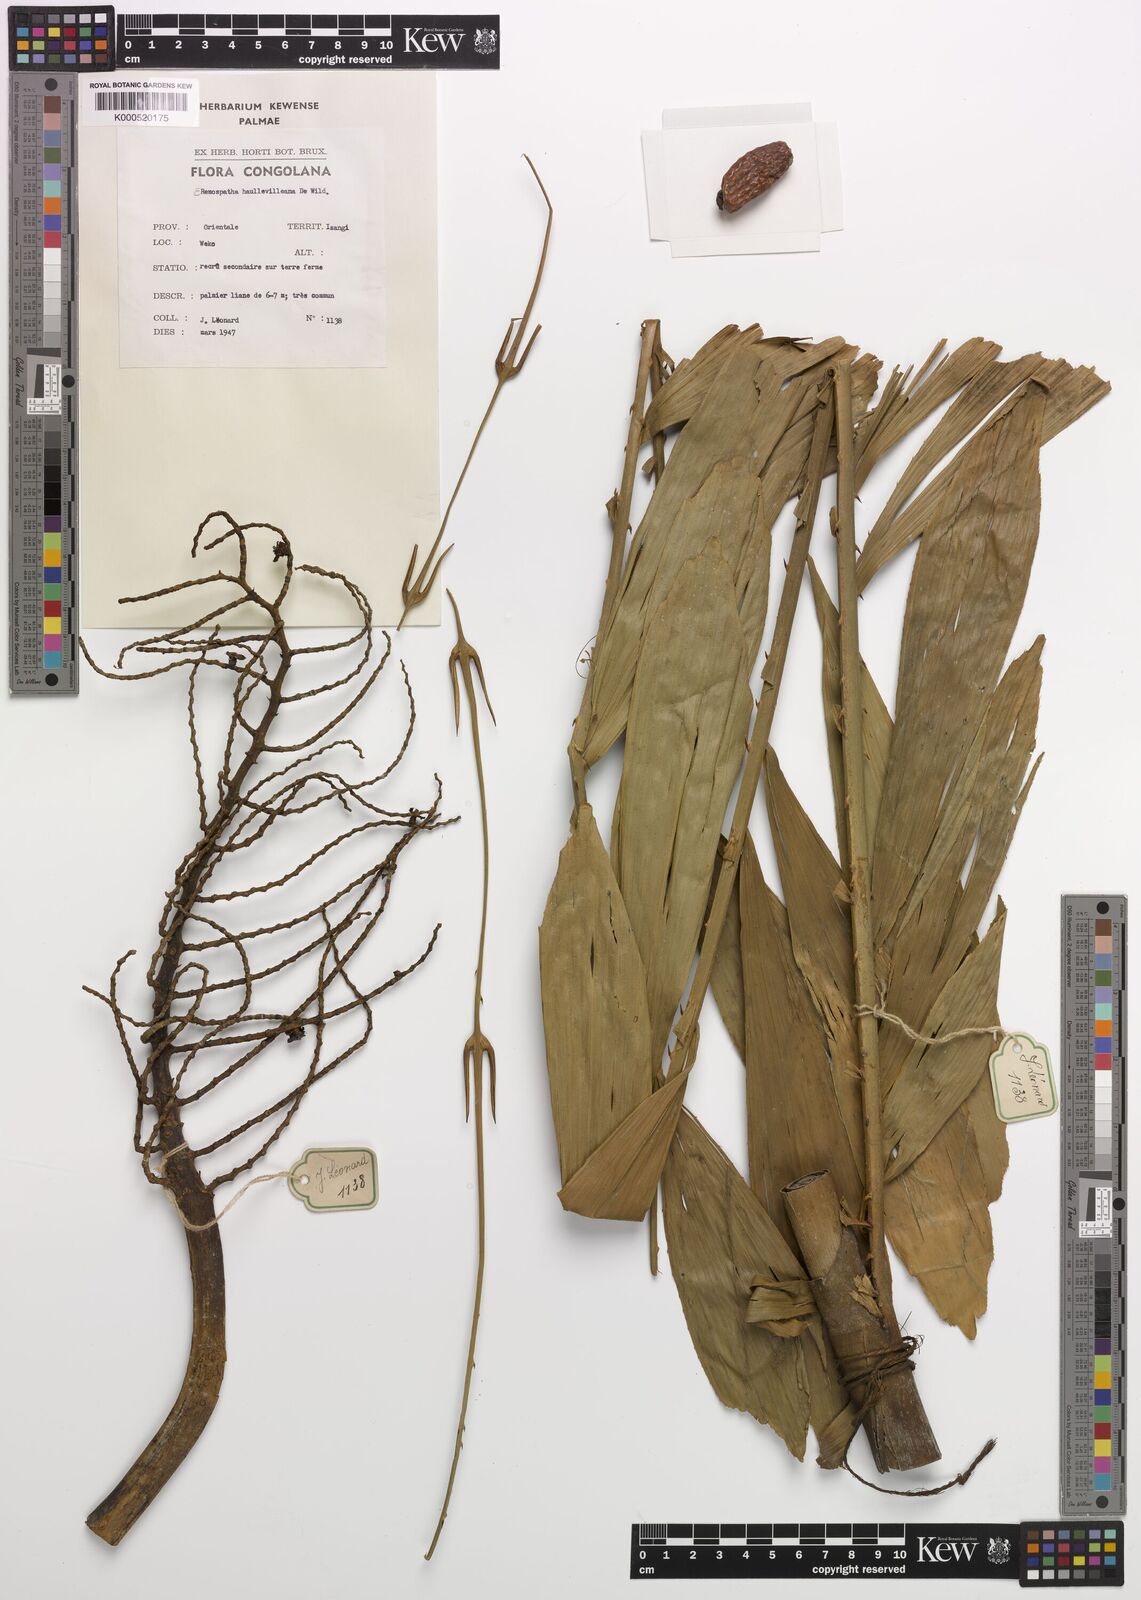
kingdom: Plantae
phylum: Tracheophyta
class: Liliopsida
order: Arecales
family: Arecaceae
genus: Eremospatha
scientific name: Eremospatha haullevilleana
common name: Rattan
